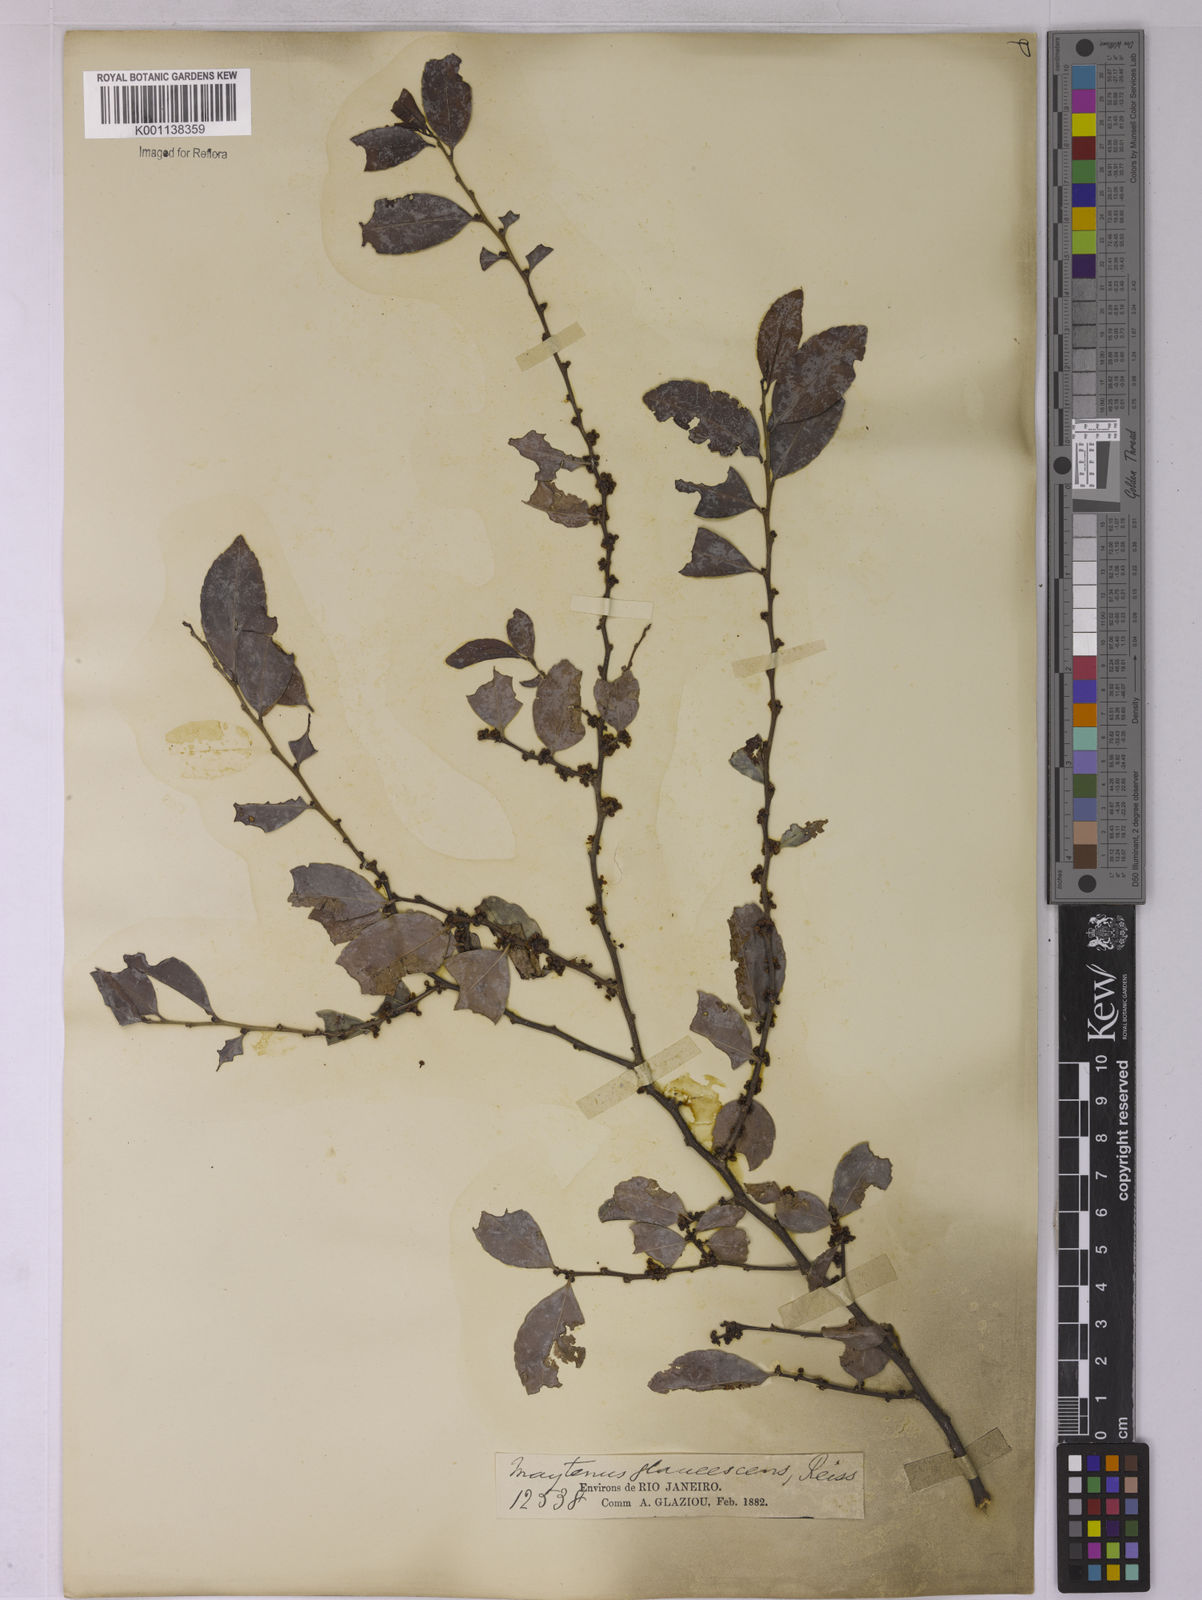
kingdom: Plantae
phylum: Tracheophyta
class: Magnoliopsida
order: Celastrales
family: Celastraceae
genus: Monteverdia
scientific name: Monteverdia glaucescens
